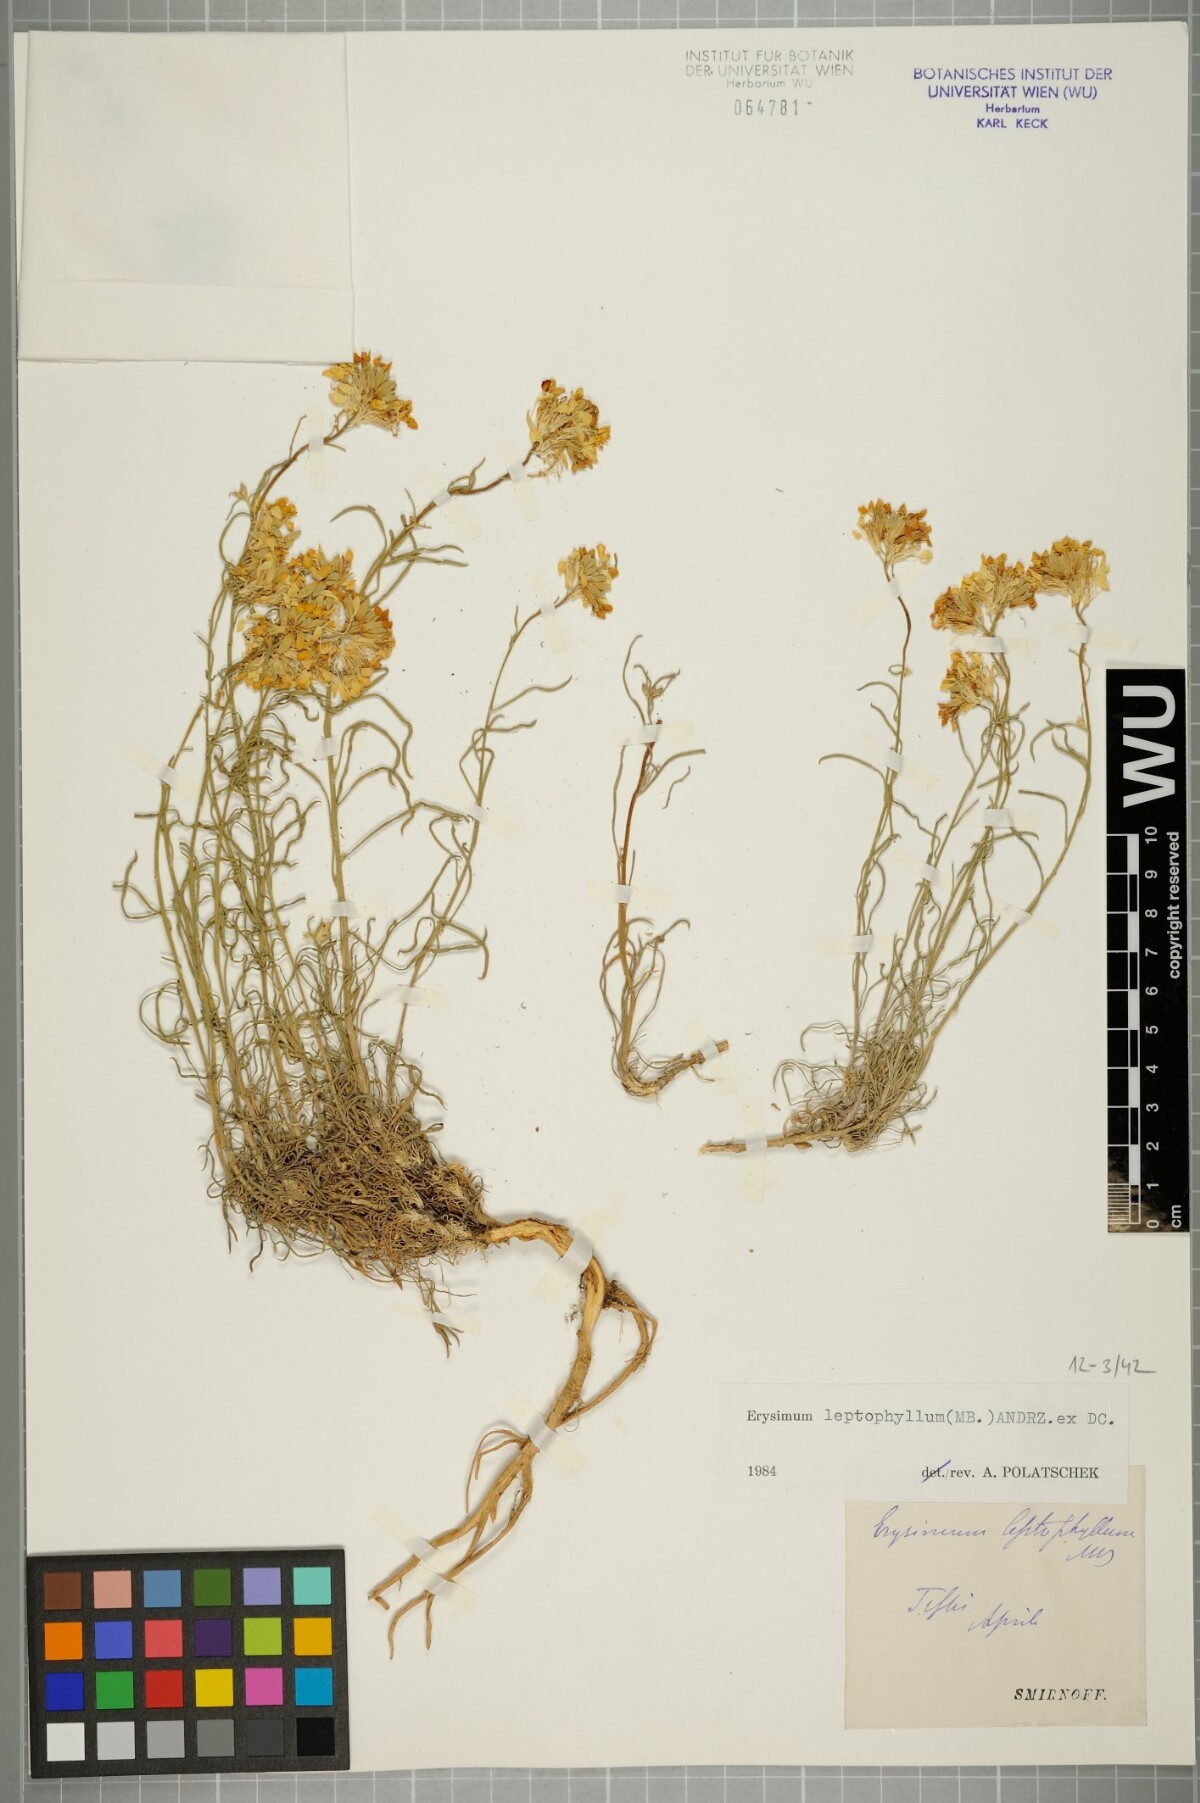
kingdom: Plantae
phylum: Tracheophyta
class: Magnoliopsida
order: Brassicales
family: Brassicaceae
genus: Erysimum
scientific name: Erysimum leptophyllum
